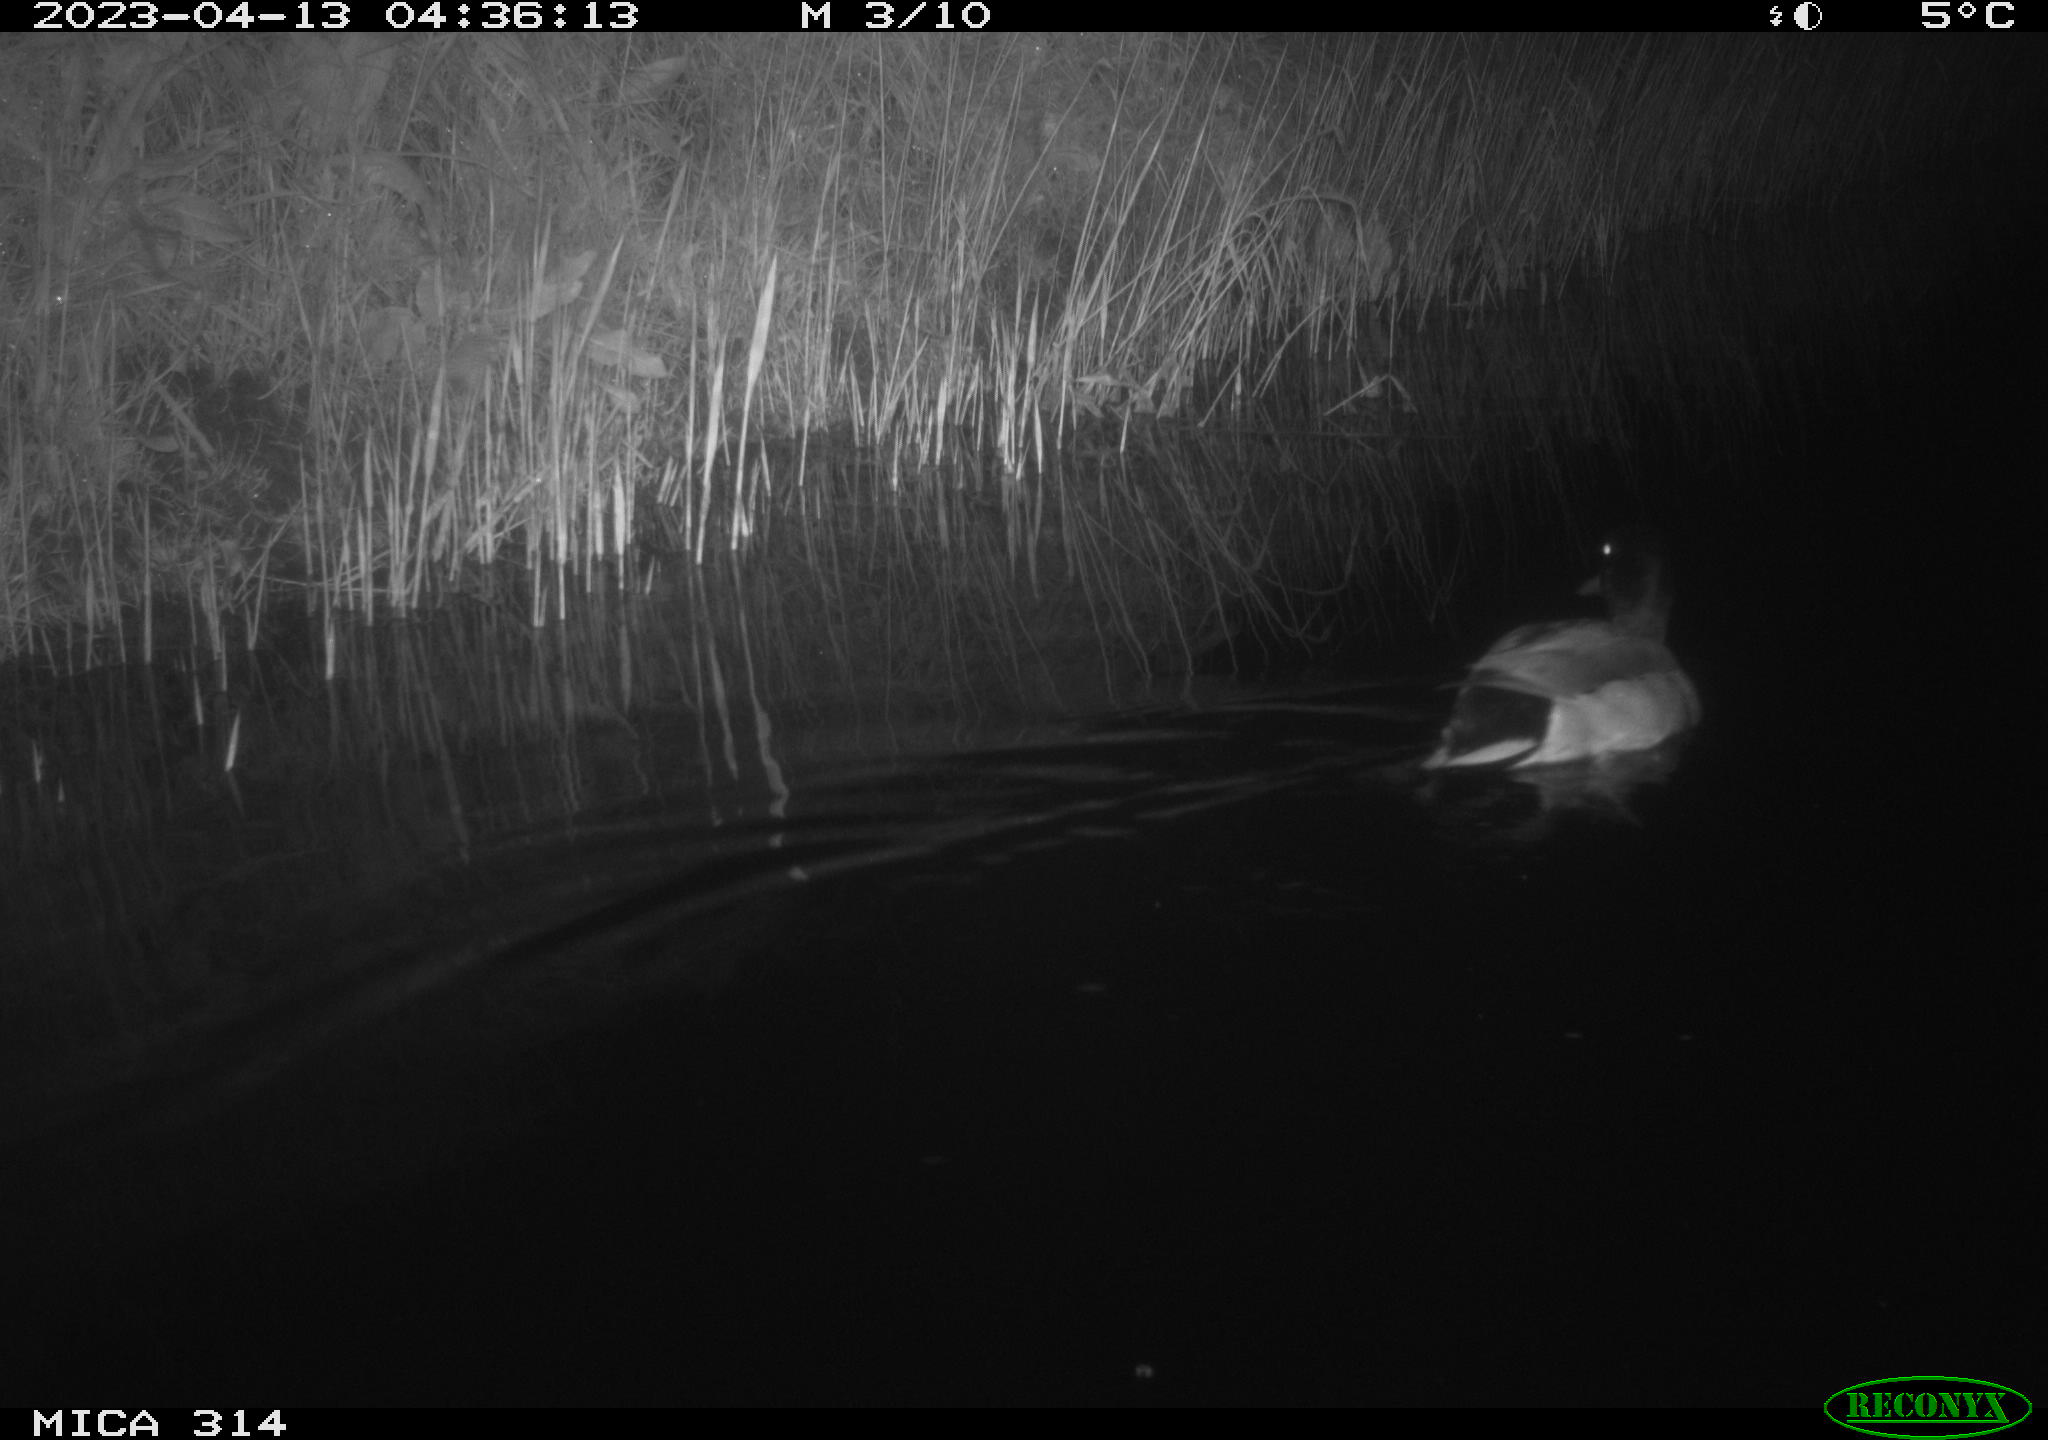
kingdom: Animalia
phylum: Chordata
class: Aves
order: Anseriformes
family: Anatidae
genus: Anas
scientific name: Anas
